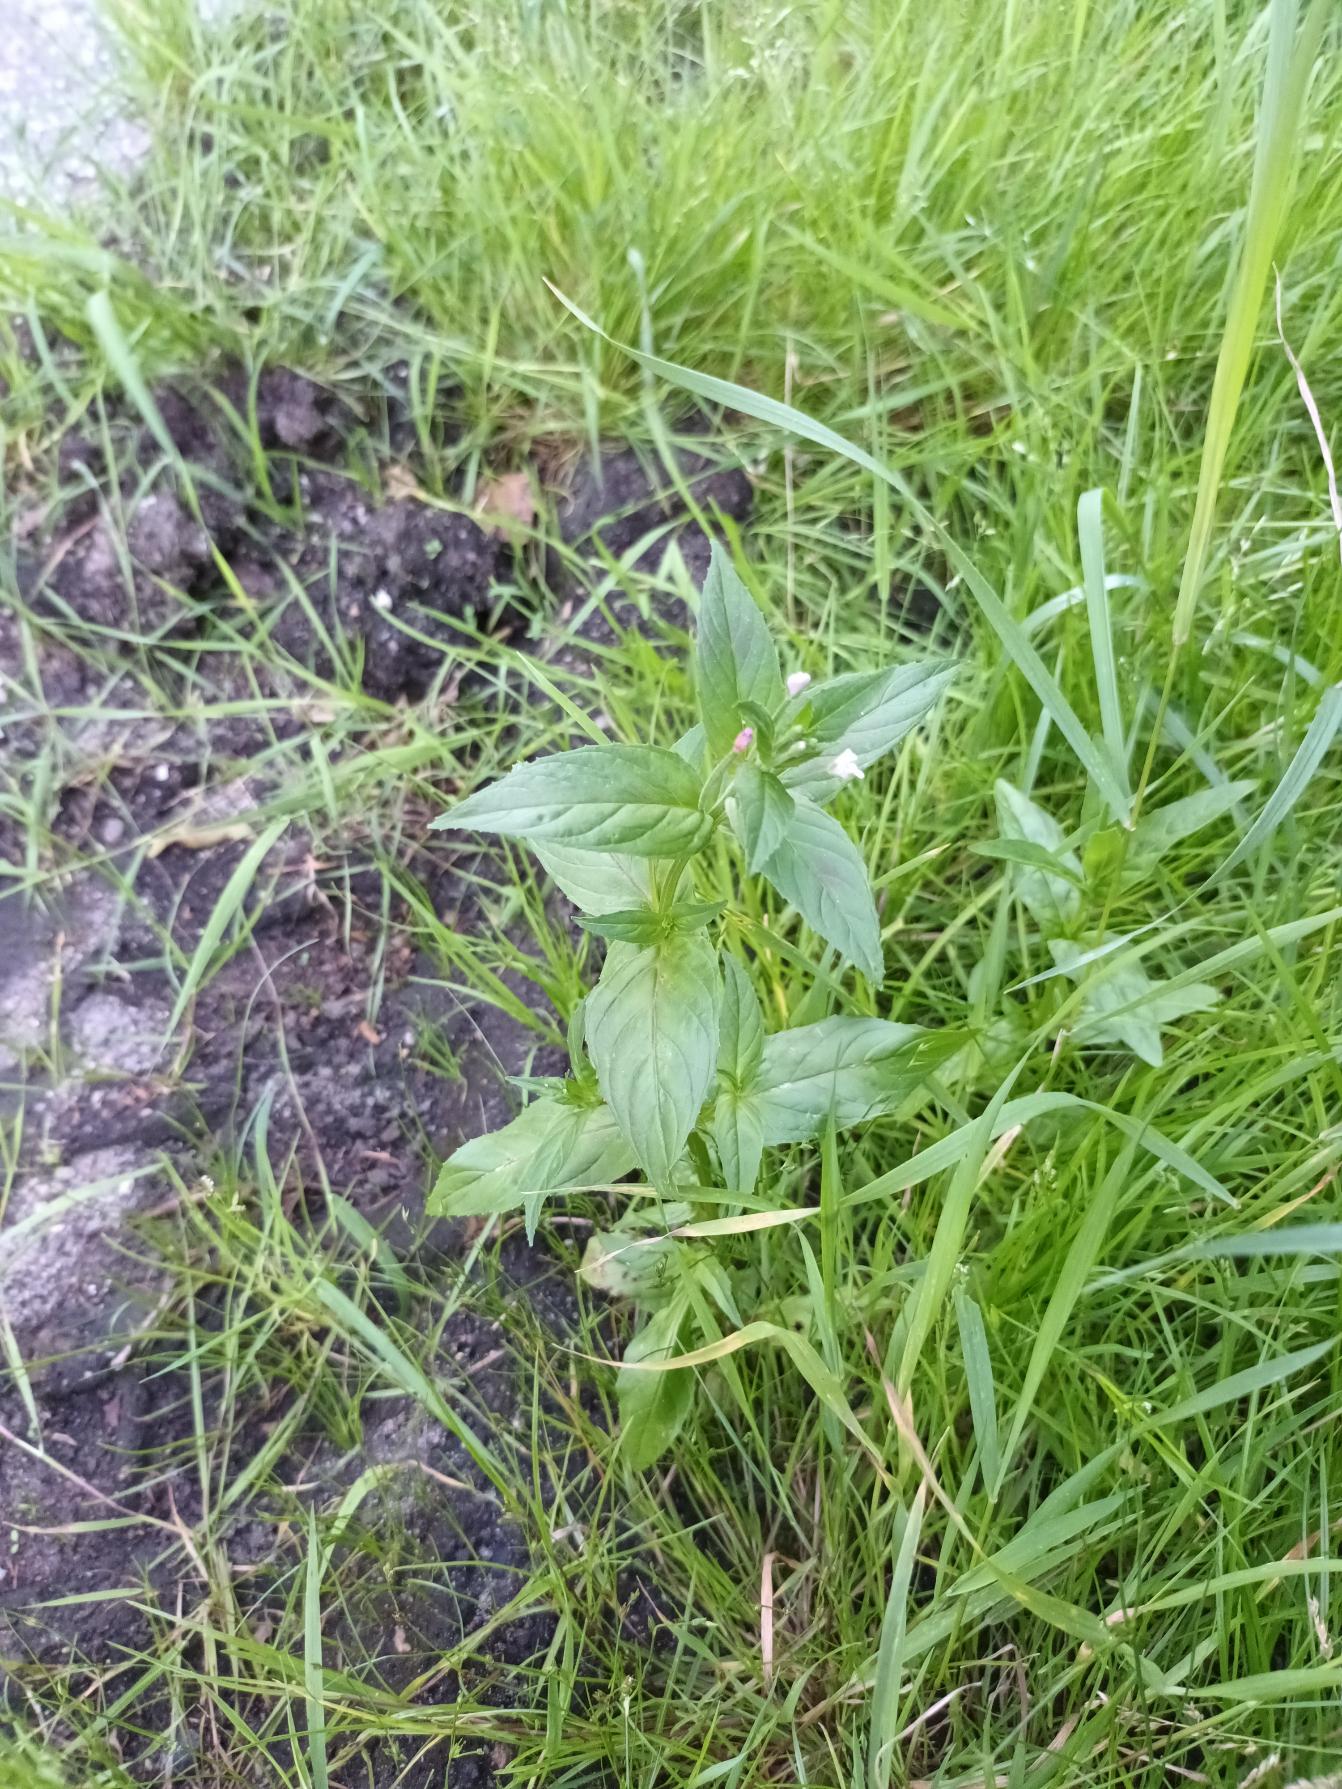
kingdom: Plantae
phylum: Tracheophyta
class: Magnoliopsida
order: Myrtales
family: Onagraceae
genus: Epilobium
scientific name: Epilobium ciliatum
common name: Alaska-dueurt
